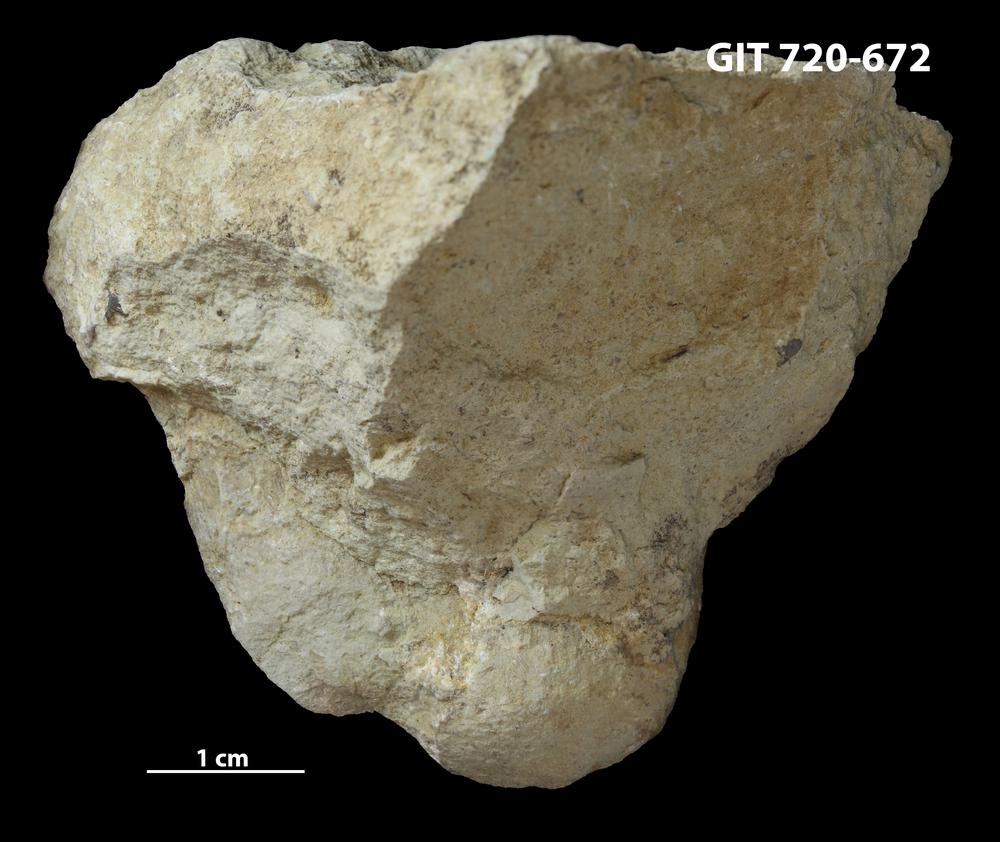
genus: Conichnus
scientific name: Conichnus
